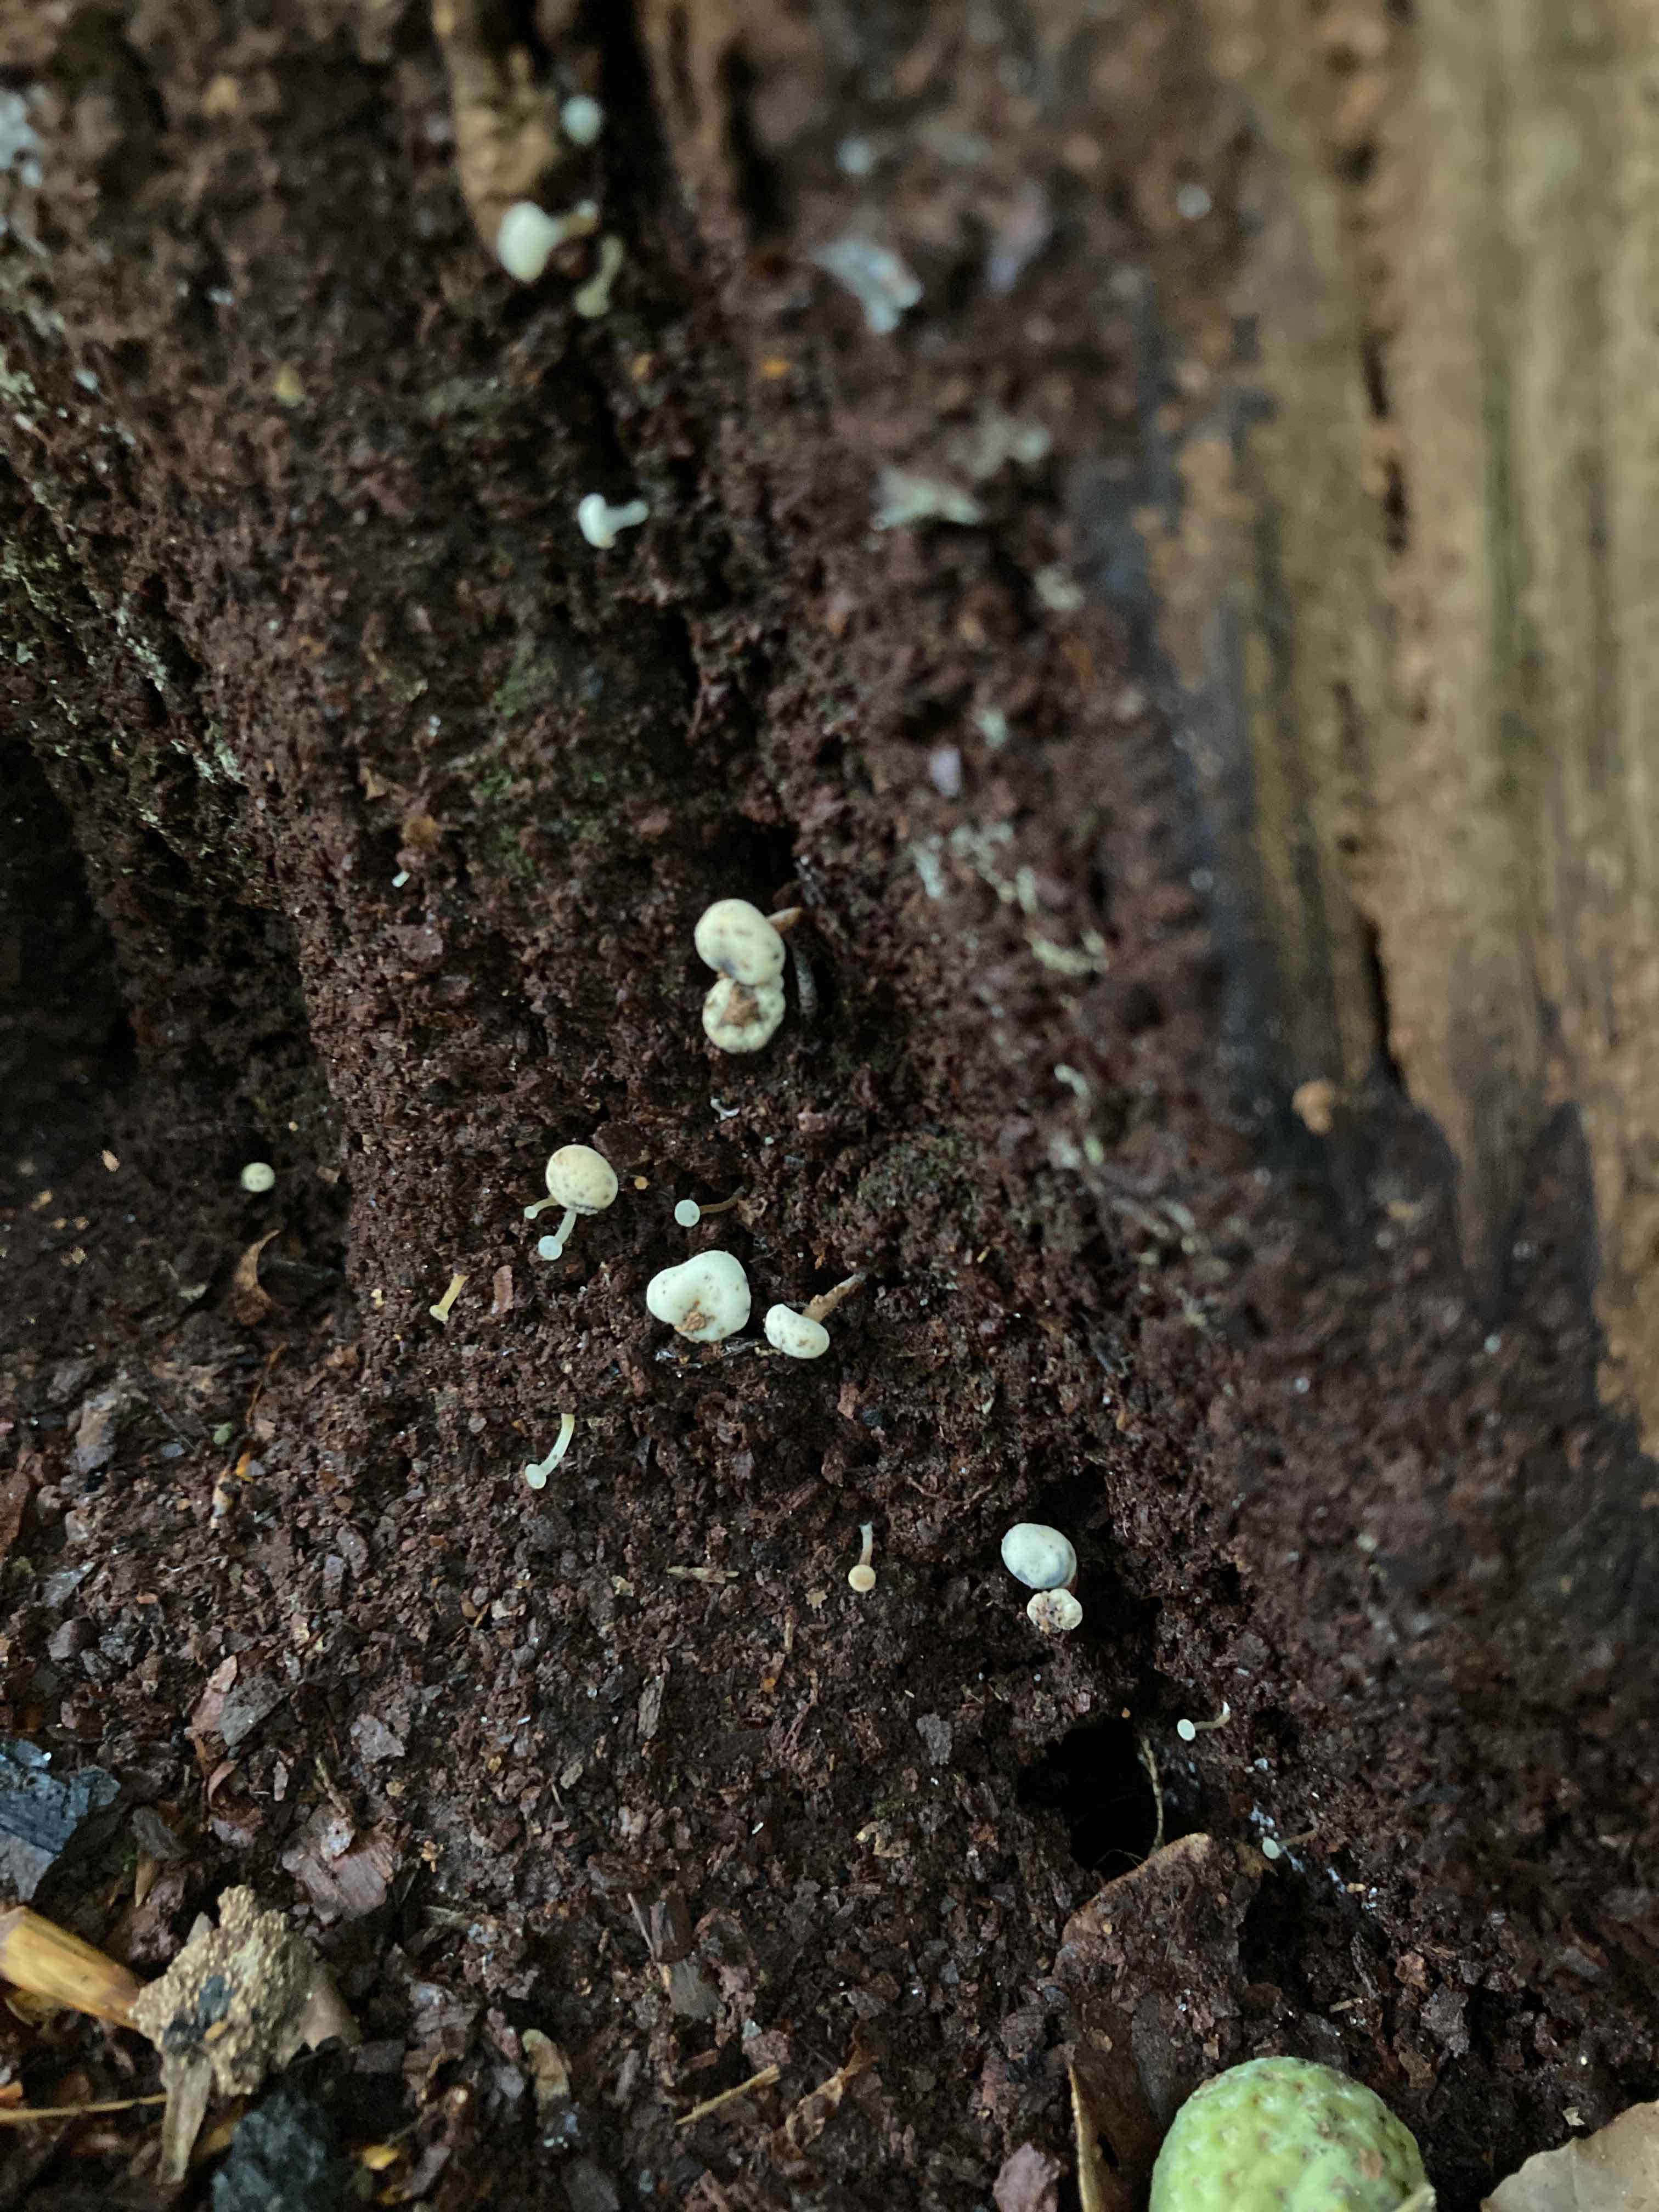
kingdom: Fungi
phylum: Ascomycota
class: Leotiomycetes
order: Helotiales
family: Tricladiaceae
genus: Cudoniella
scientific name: Cudoniella acicularis
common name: ege-dyndskive
